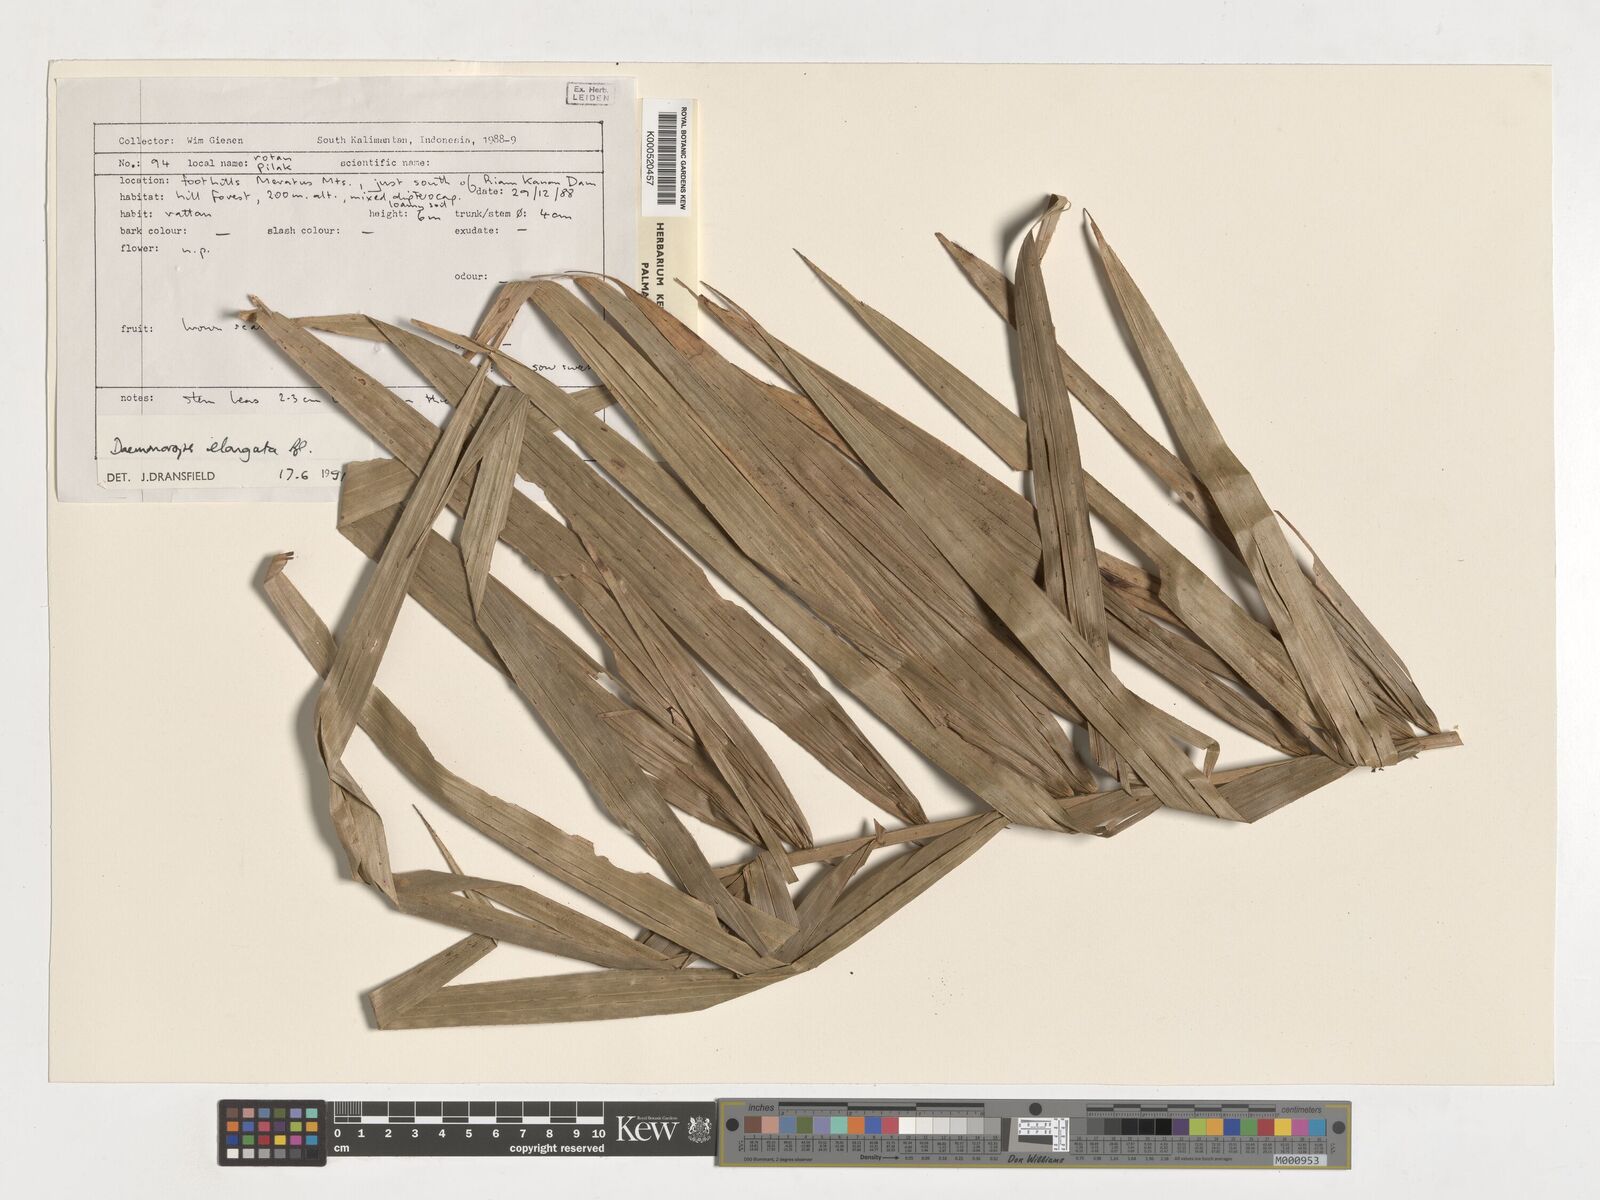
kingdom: Plantae
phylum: Tracheophyta
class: Liliopsida
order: Arecales
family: Arecaceae
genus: Calamus
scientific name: Calamus oblongus
